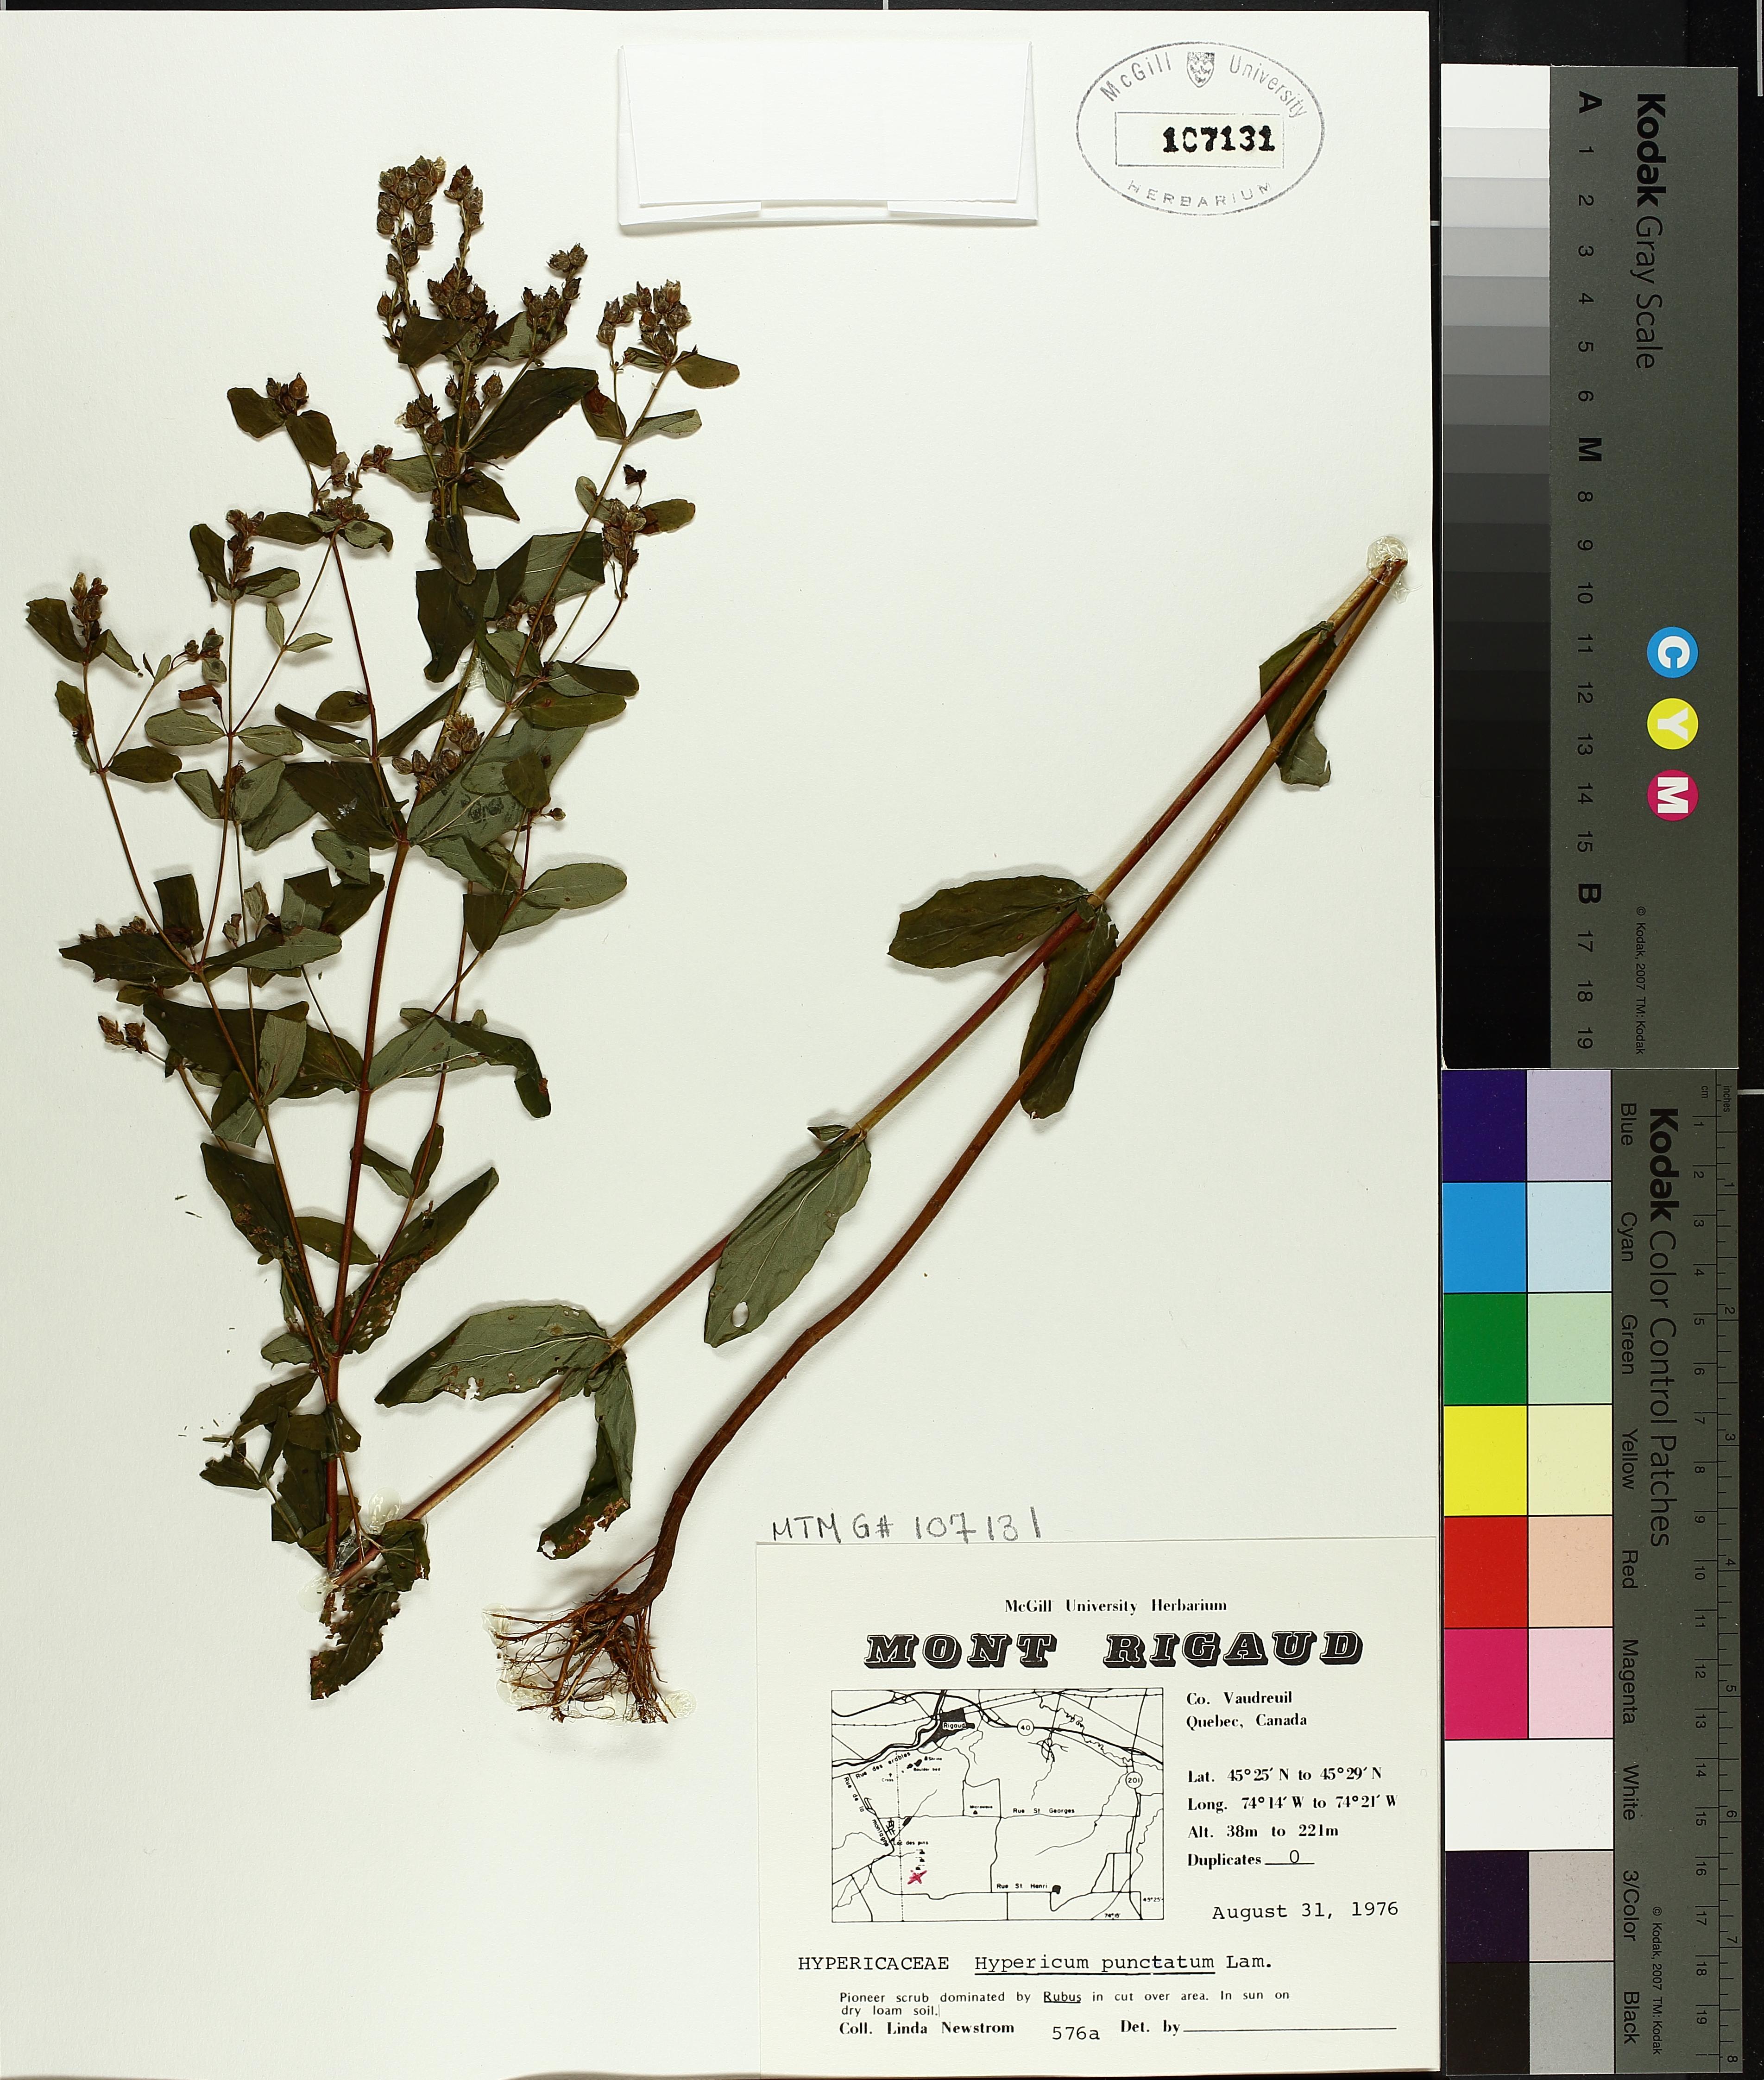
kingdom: Plantae
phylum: Tracheophyta
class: Magnoliopsida
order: Malpighiales
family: Hypericaceae
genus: Hypericum
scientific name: Hypericum punctatum
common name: Spotted st. john's-wort
